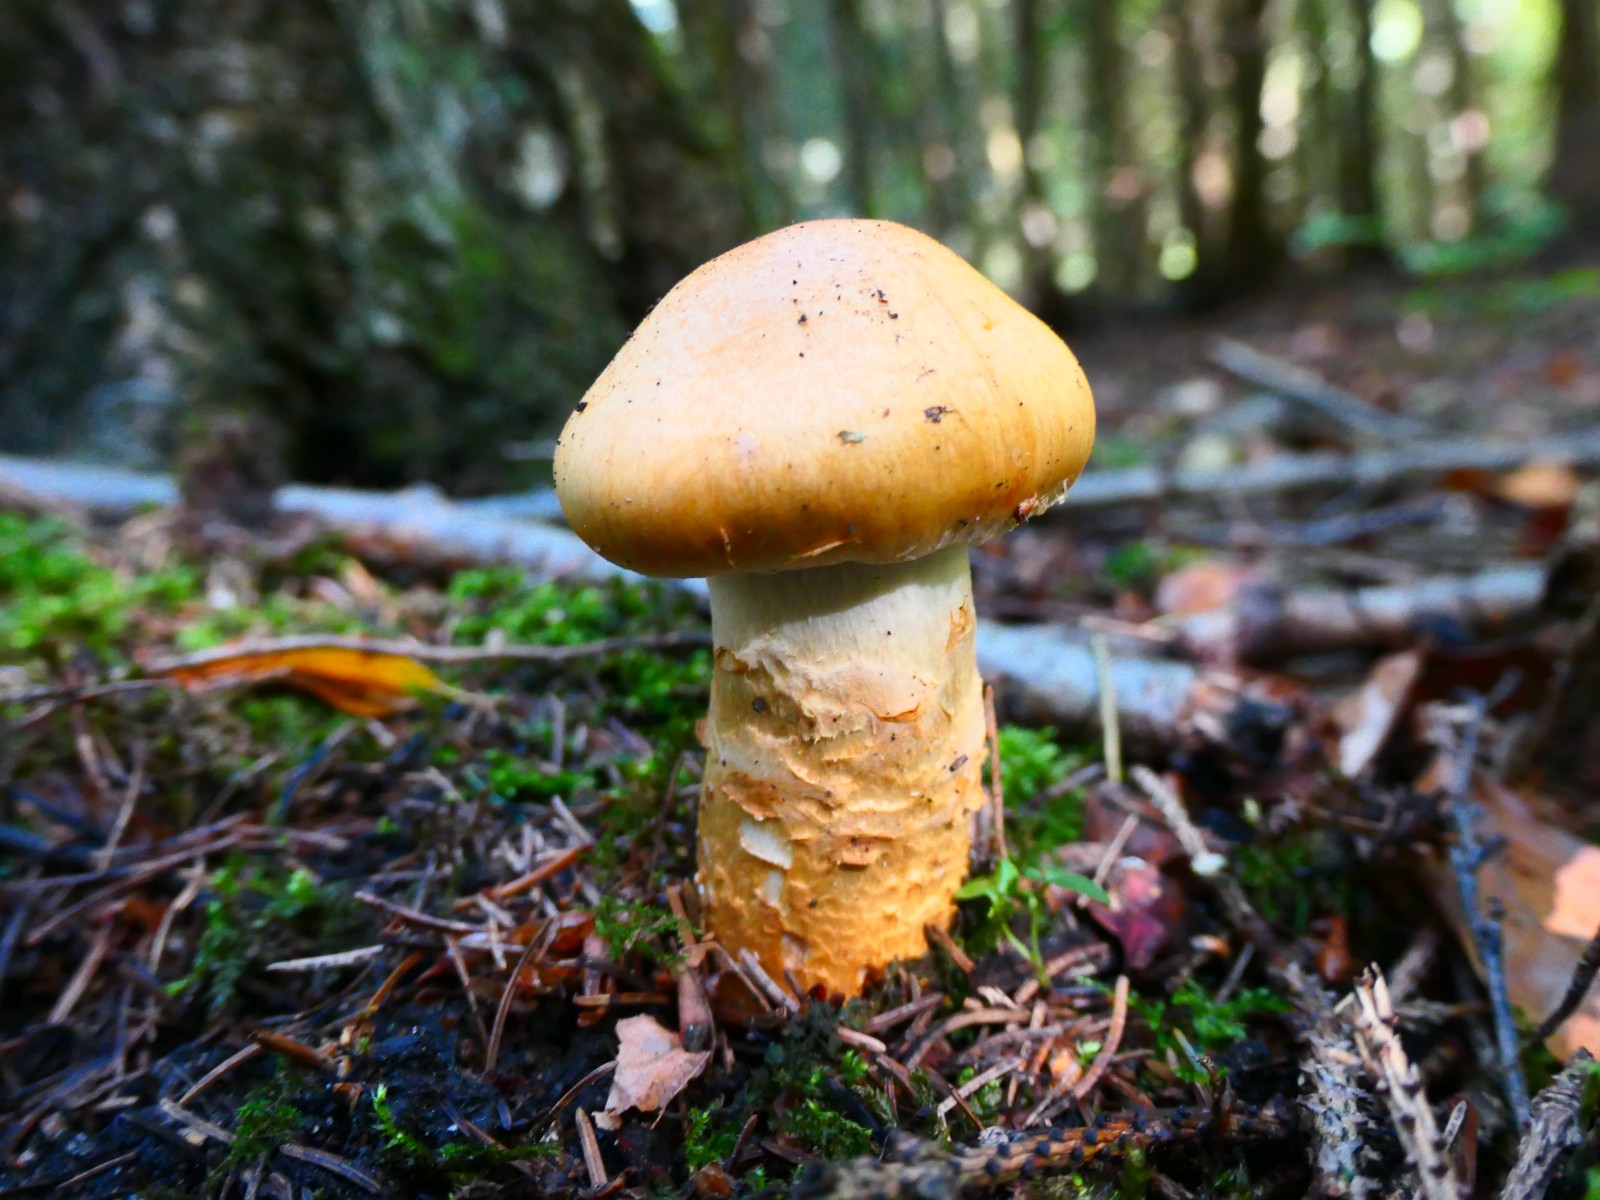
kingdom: Fungi
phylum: Basidiomycota
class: Agaricomycetes
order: Agaricales
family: Cortinariaceae
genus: Cortinarius
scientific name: Cortinarius
